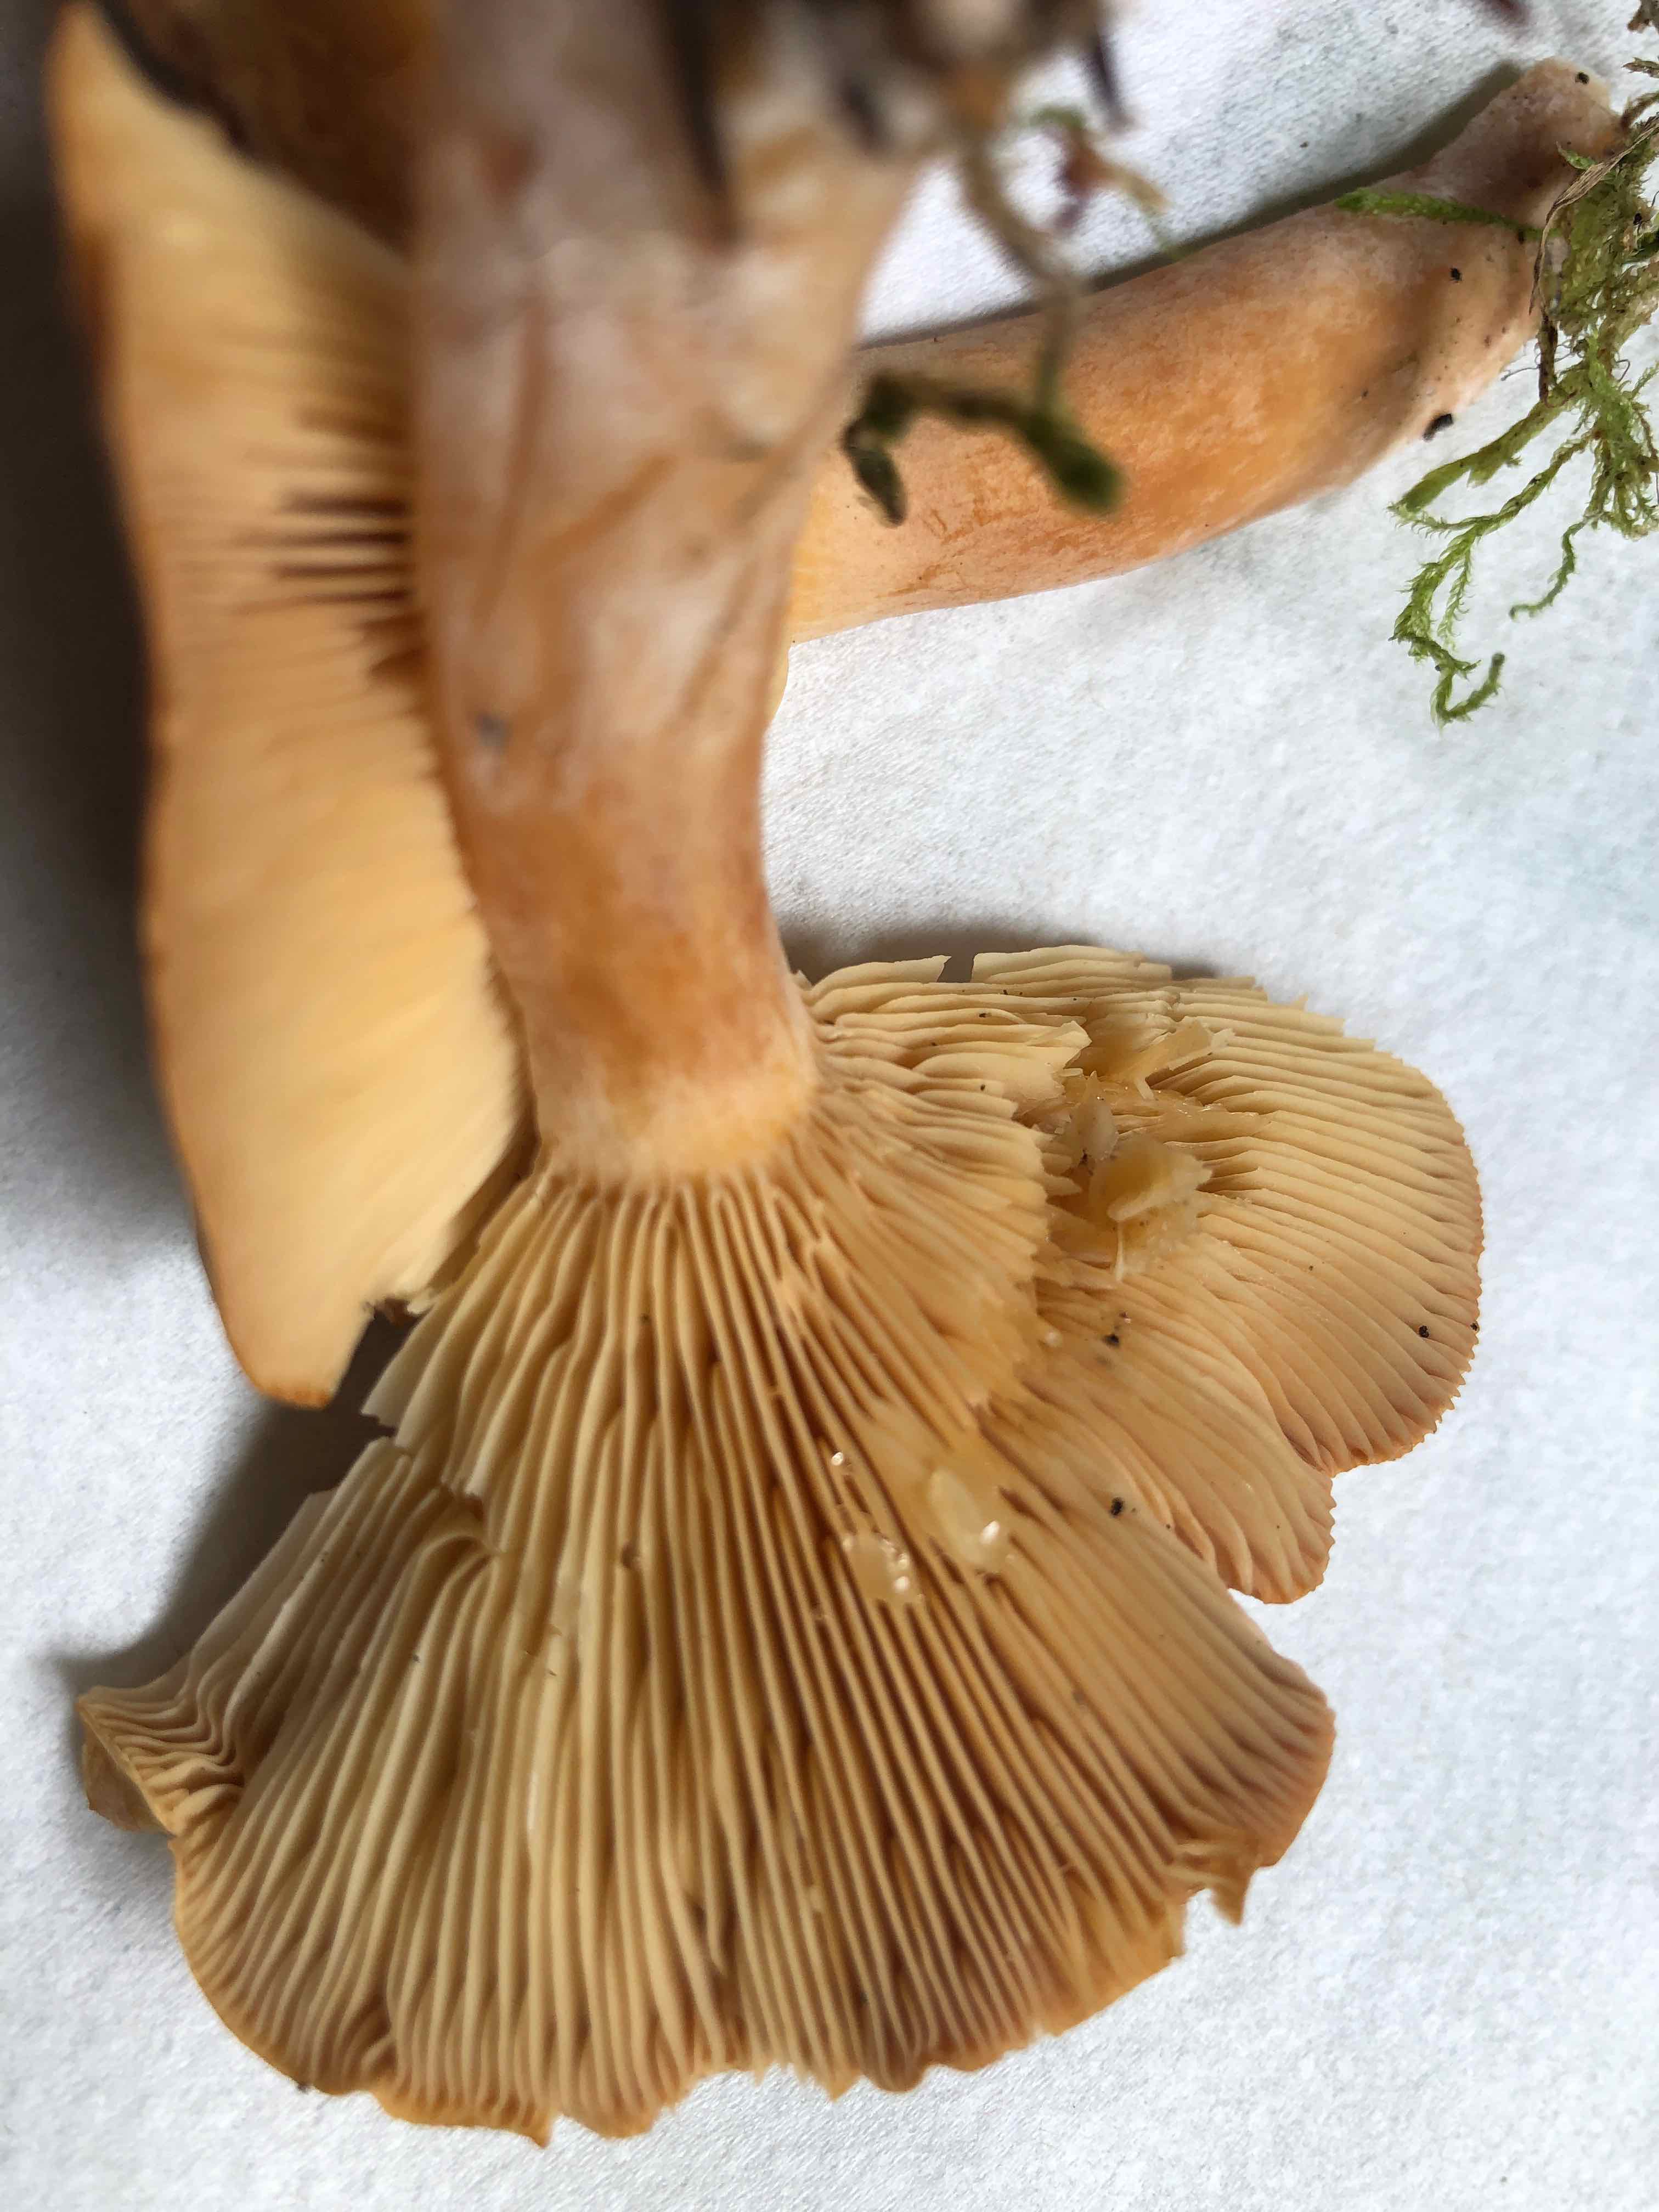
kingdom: Fungi
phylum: Basidiomycota
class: Agaricomycetes
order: Russulales
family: Russulaceae
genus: Lactarius
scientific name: Lactarius helvus
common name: mose-mælkehat
